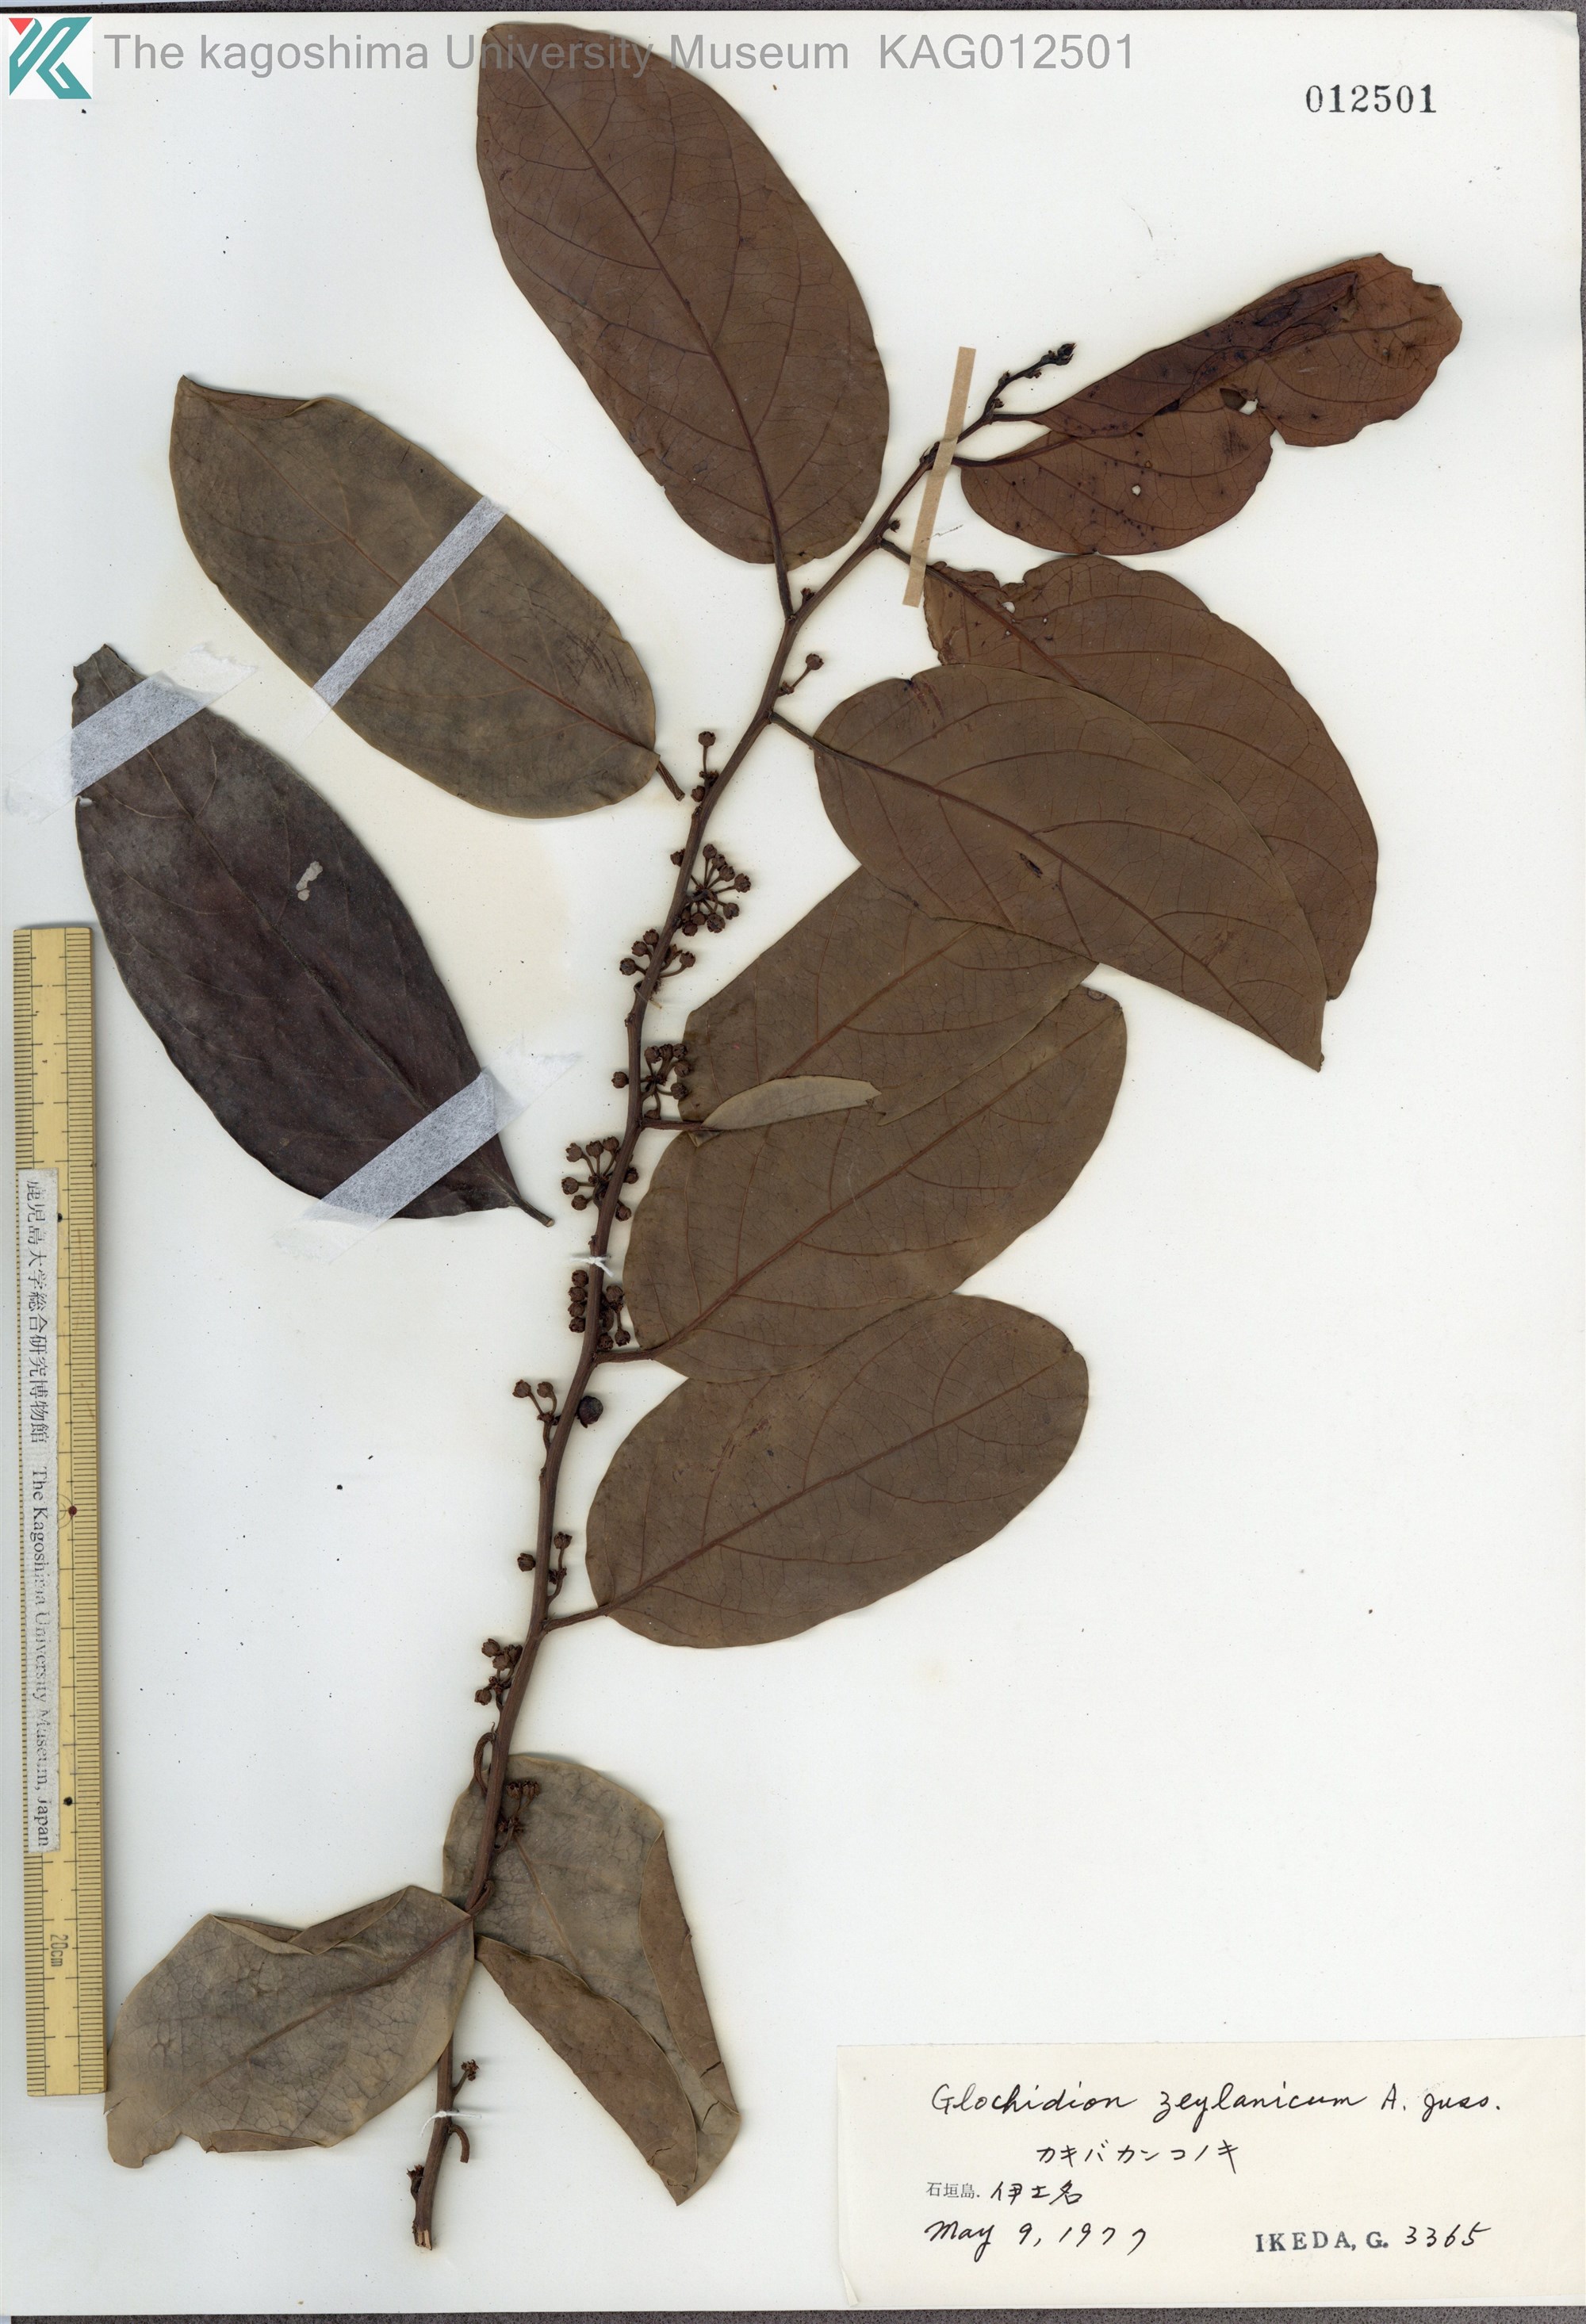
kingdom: Plantae
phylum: Tracheophyta
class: Magnoliopsida
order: Malpighiales
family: Phyllanthaceae
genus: Glochidion
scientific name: Glochidion zeylanicum
